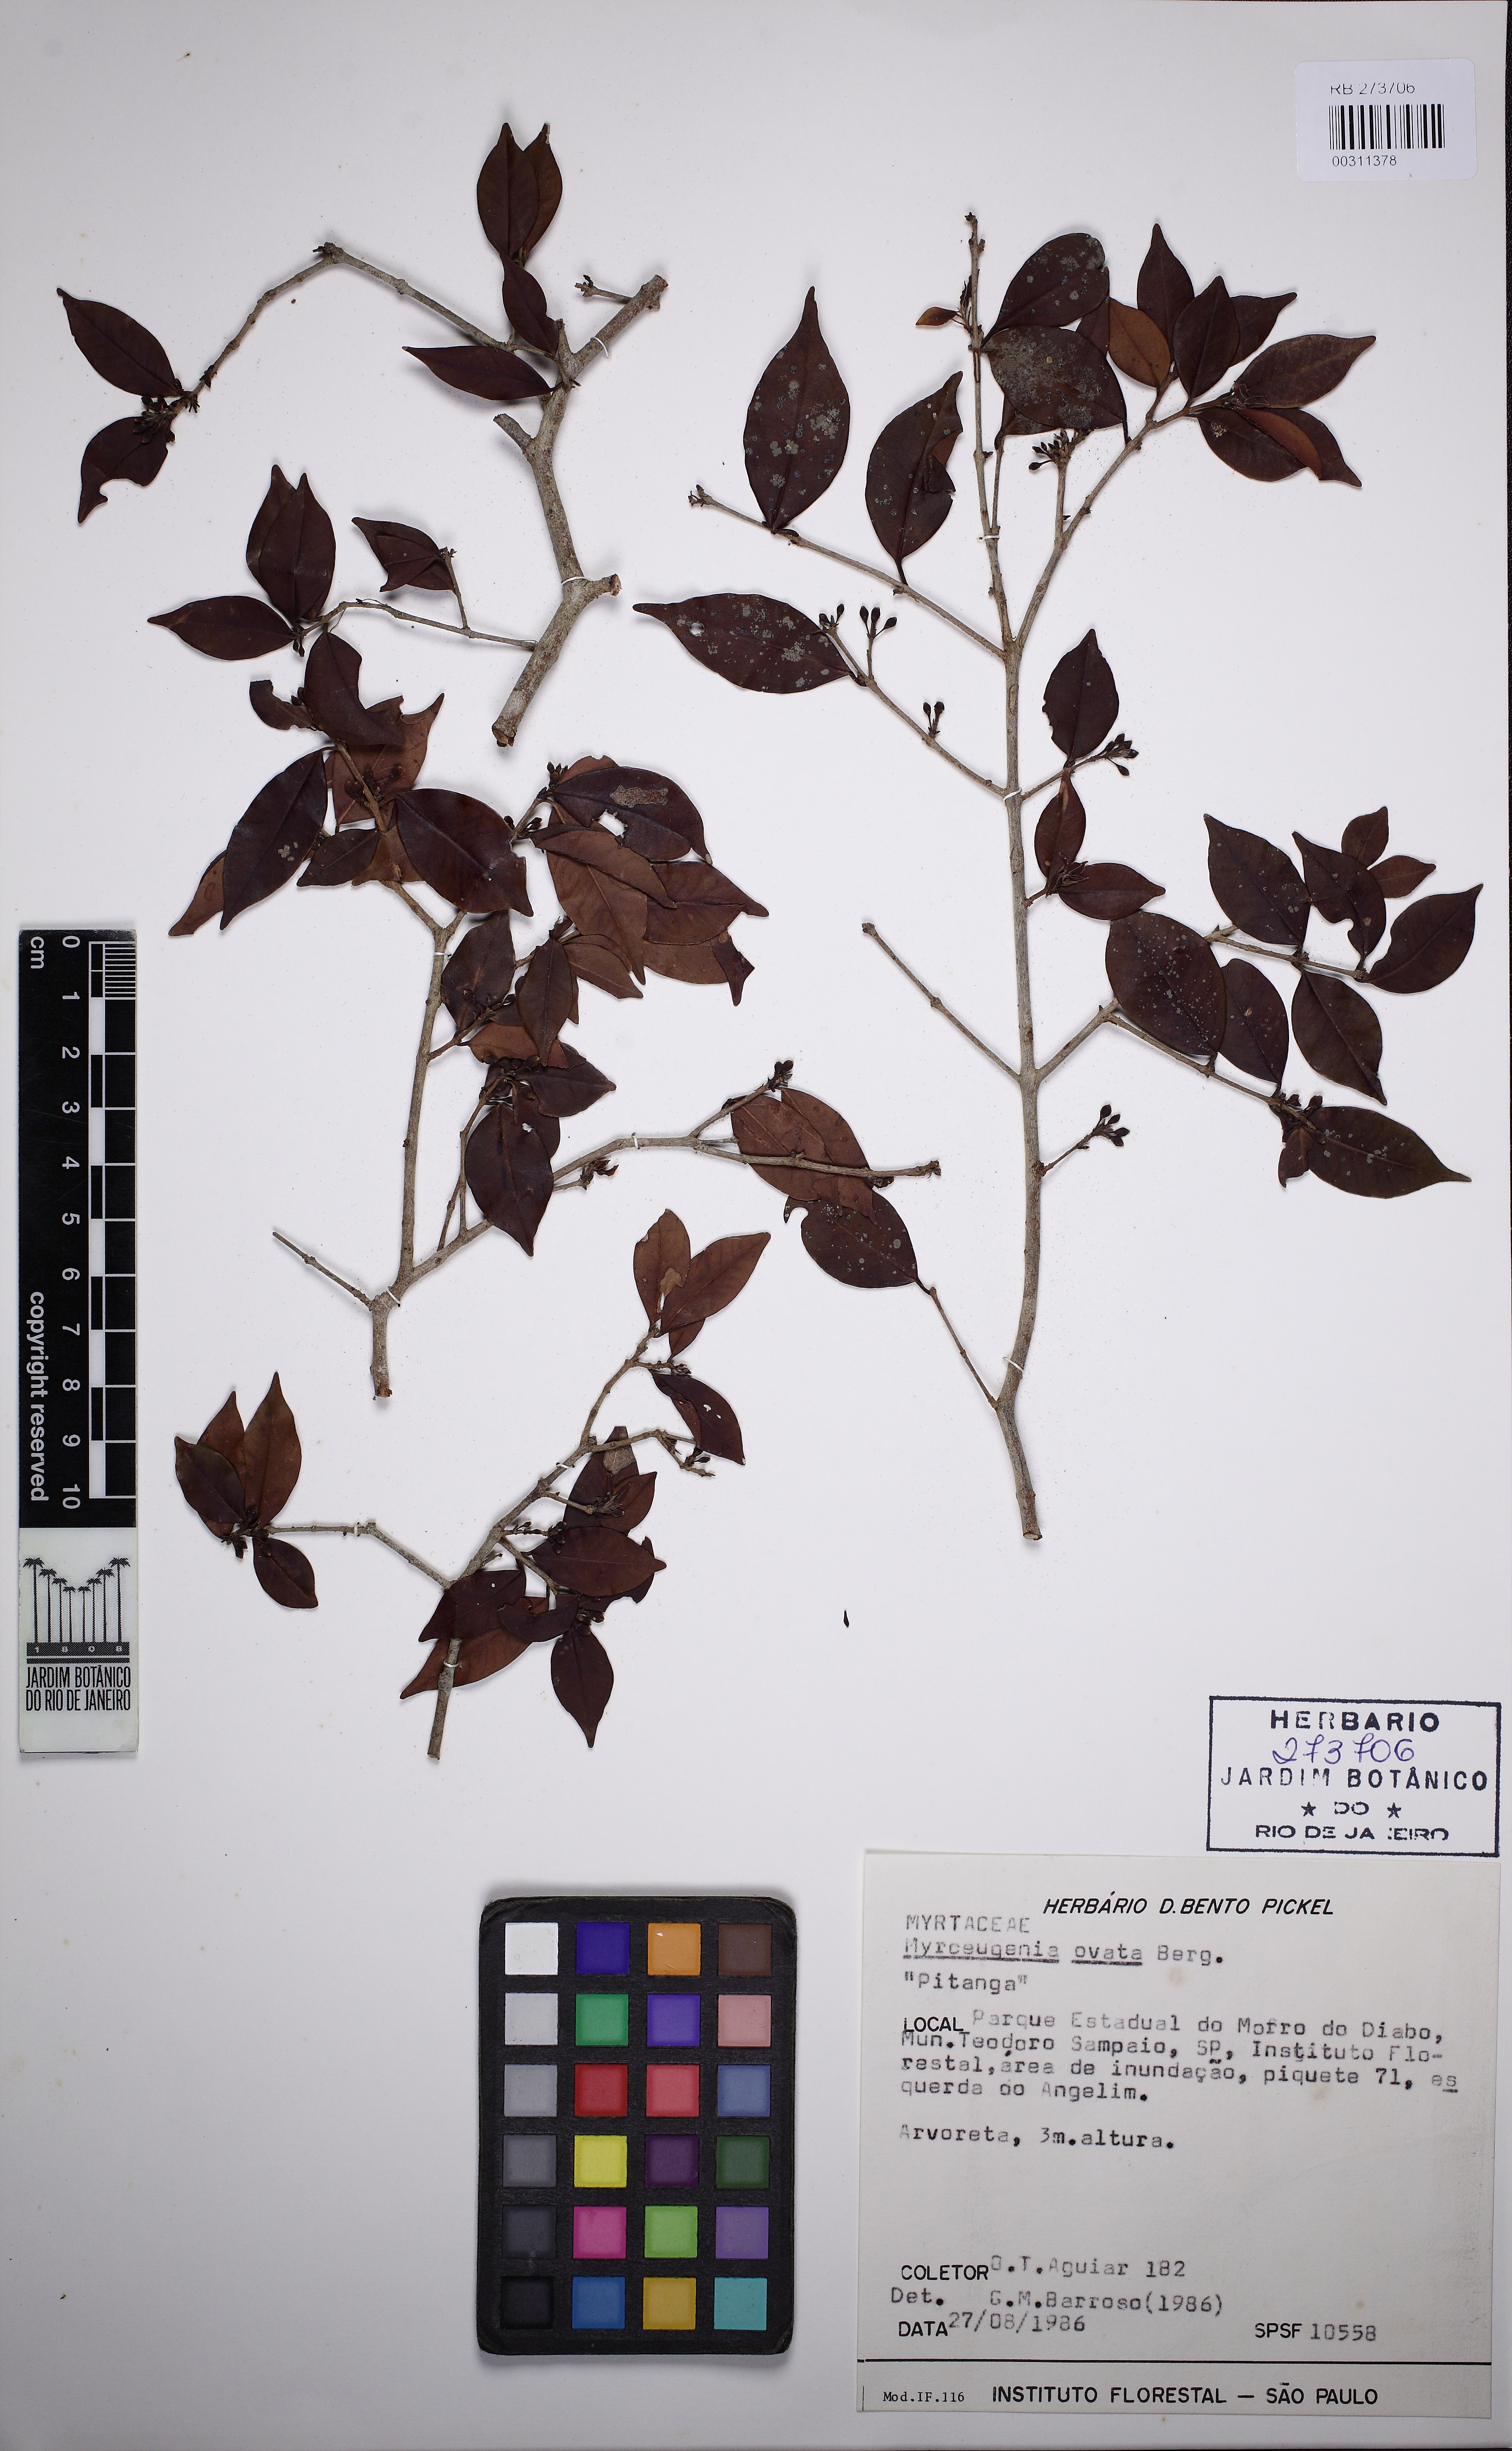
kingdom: Plantae
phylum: Tracheophyta
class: Magnoliopsida
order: Myrtales
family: Myrtaceae
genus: Myrceugenia
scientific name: Myrceugenia ovata
